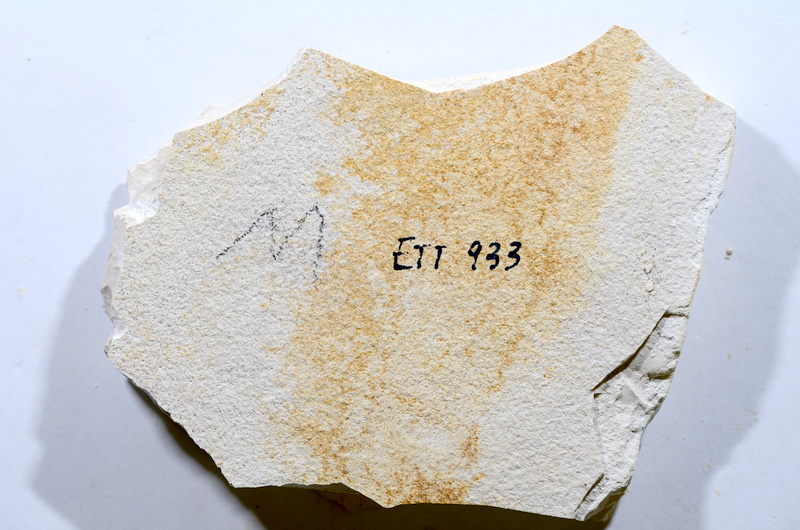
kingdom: Animalia
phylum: Chordata
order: Salmoniformes
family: Orthogonikleithridae
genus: Orthogonikleithrus
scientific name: Orthogonikleithrus hoelli
